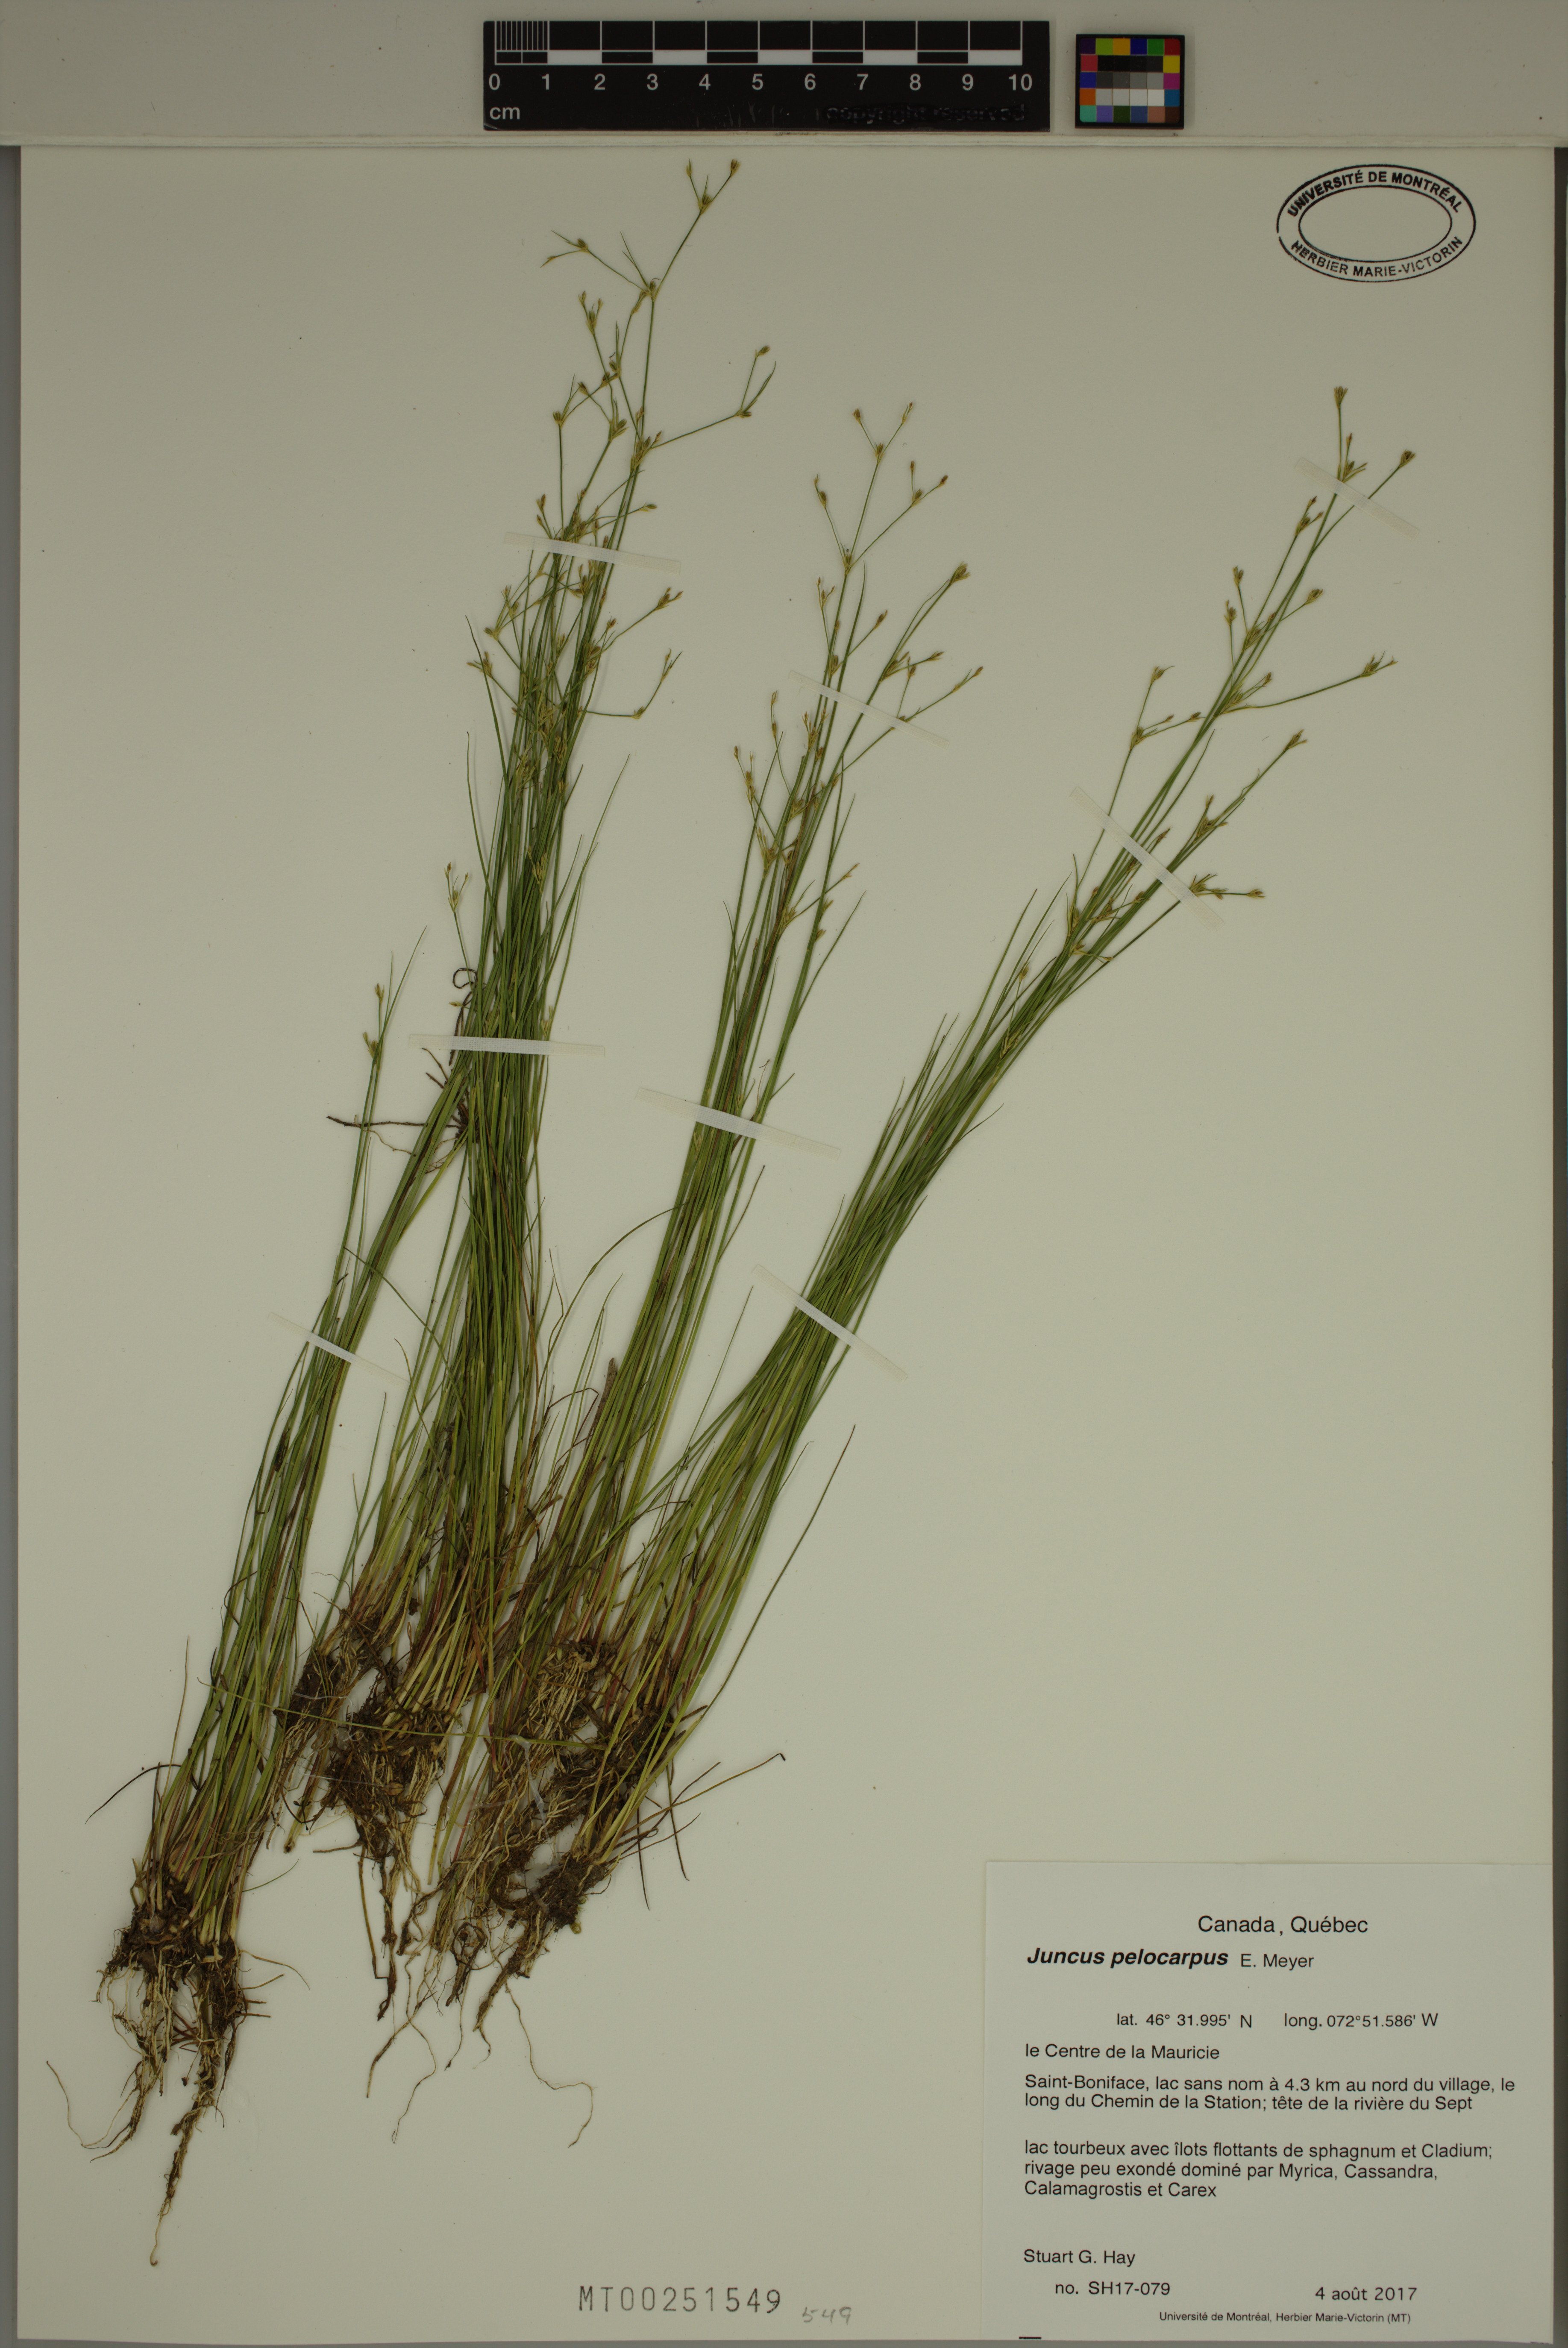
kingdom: Plantae
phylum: Tracheophyta
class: Liliopsida
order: Poales
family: Juncaceae
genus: Juncus
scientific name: Juncus pelocarpus
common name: Brown-fruited rush
